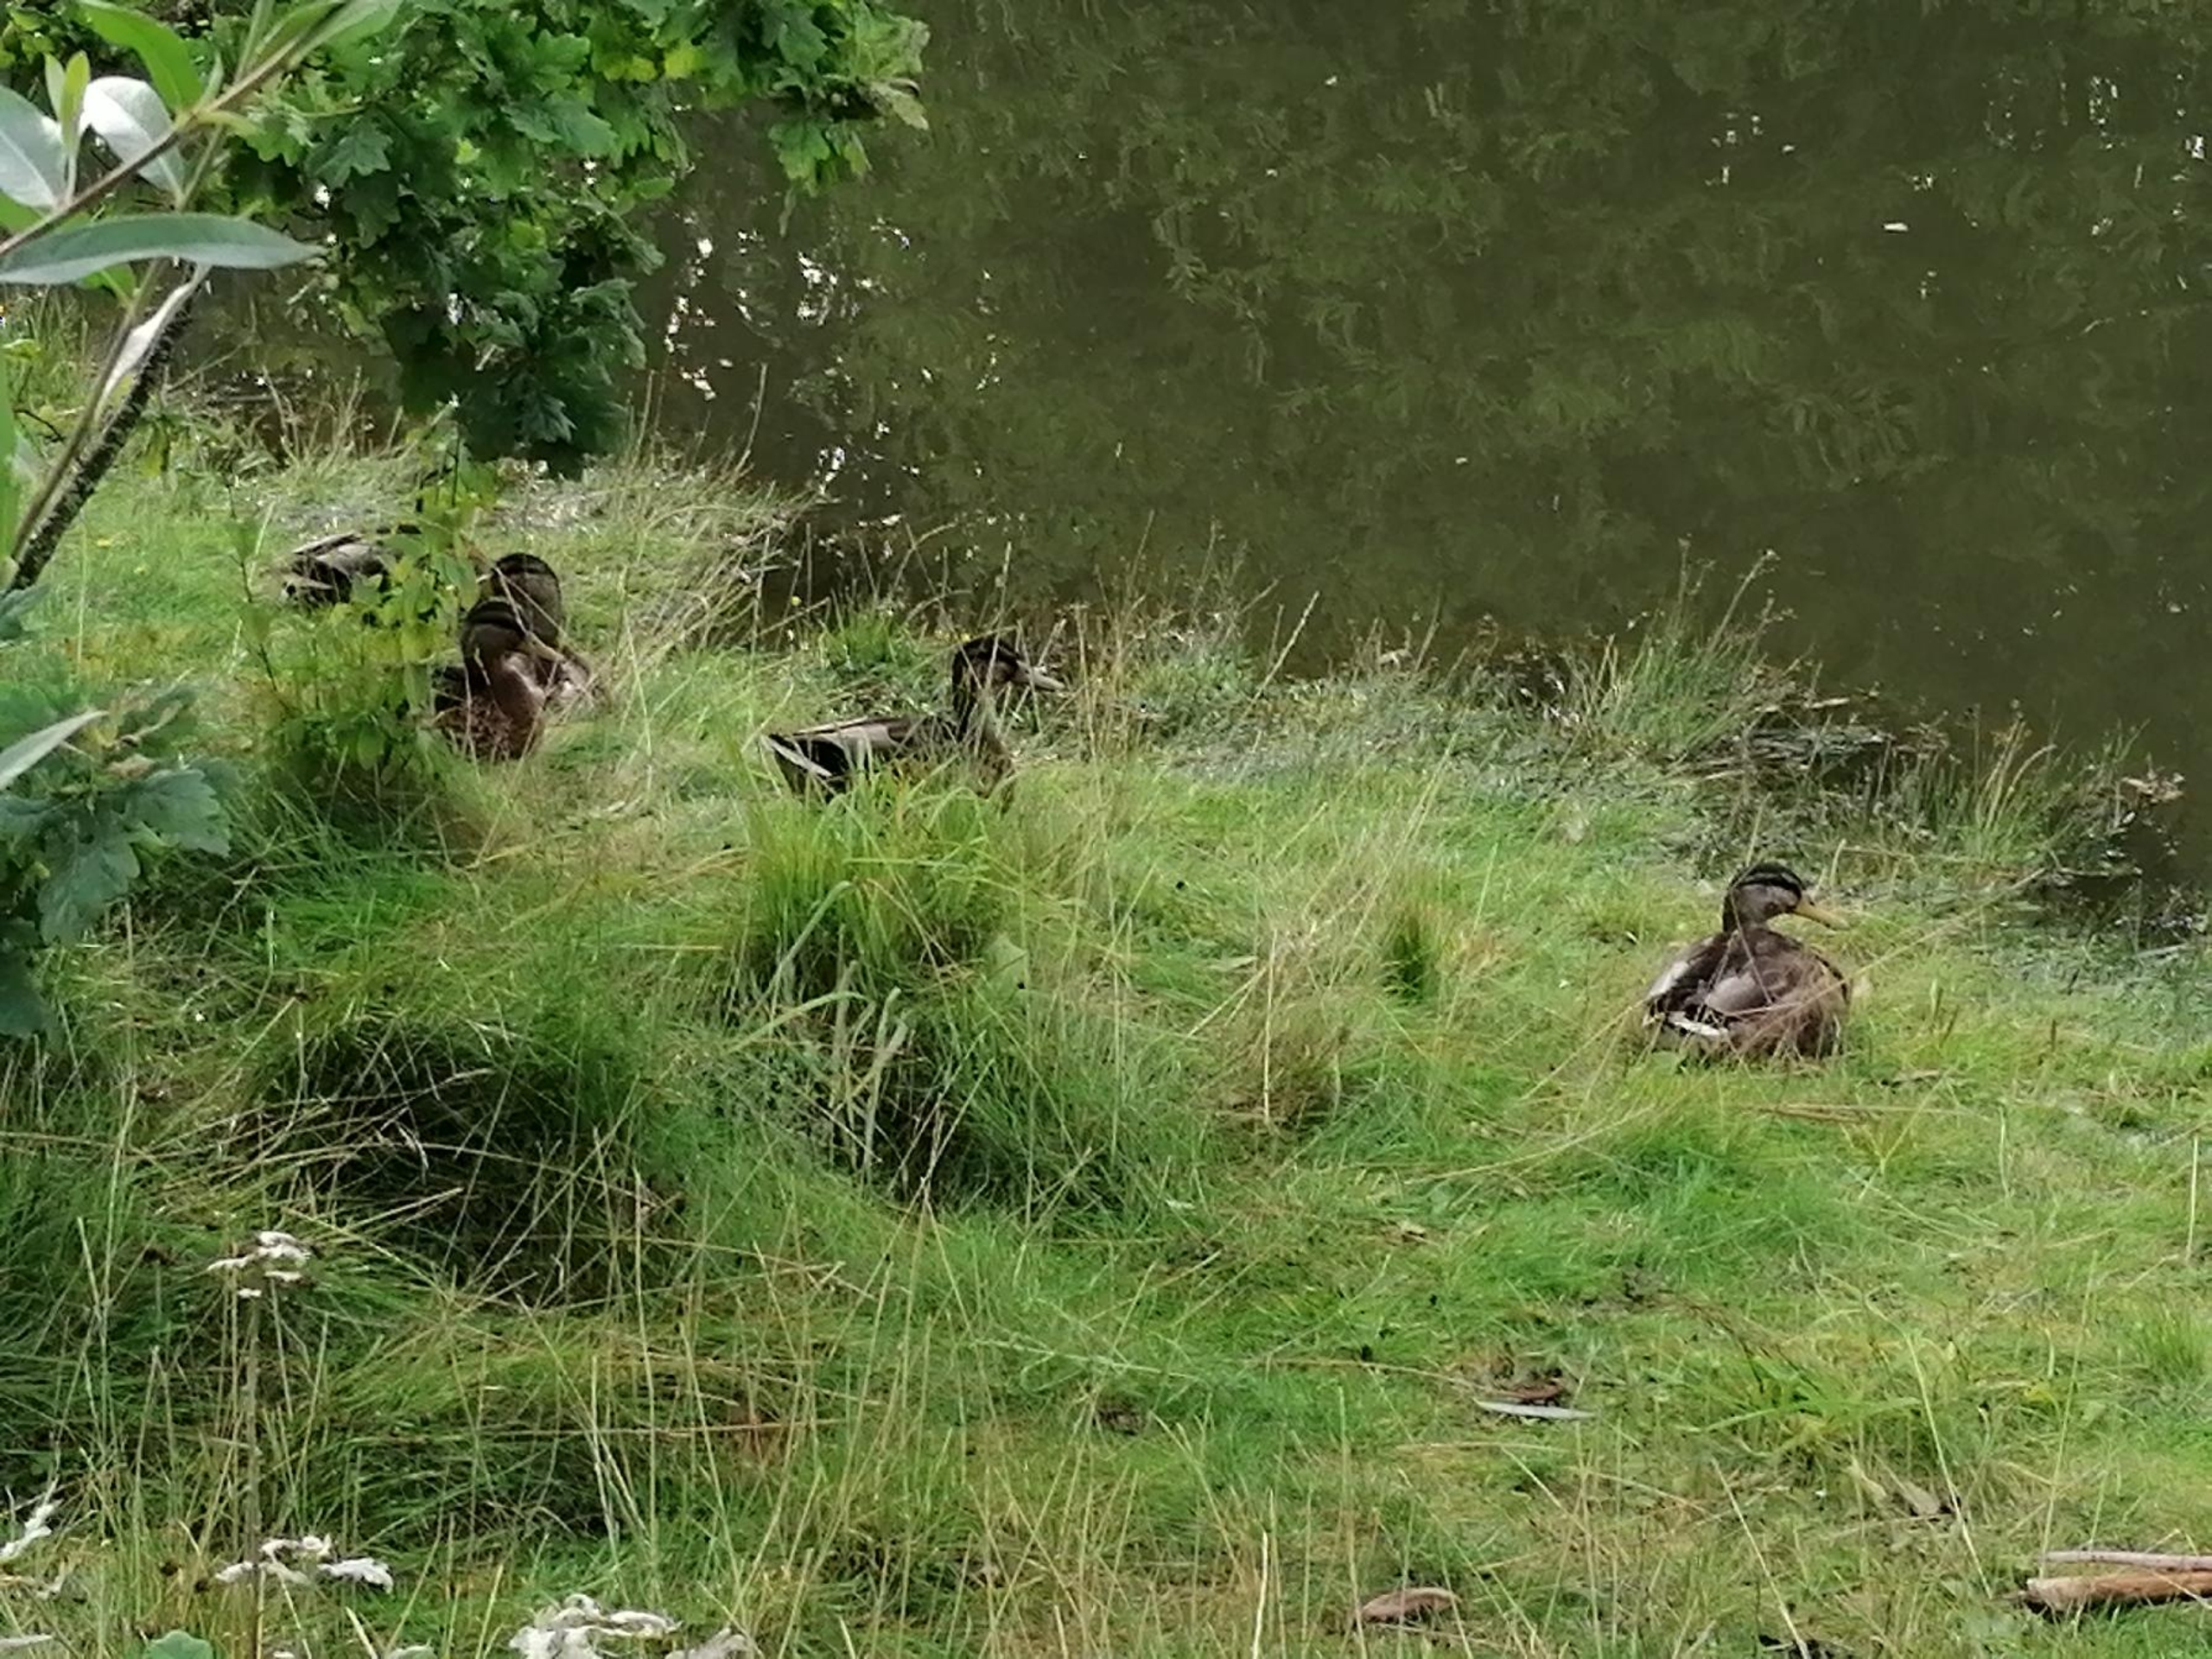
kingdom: Animalia
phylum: Chordata
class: Aves
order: Anseriformes
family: Anatidae
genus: Anas
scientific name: Anas platyrhynchos
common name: Gråand
